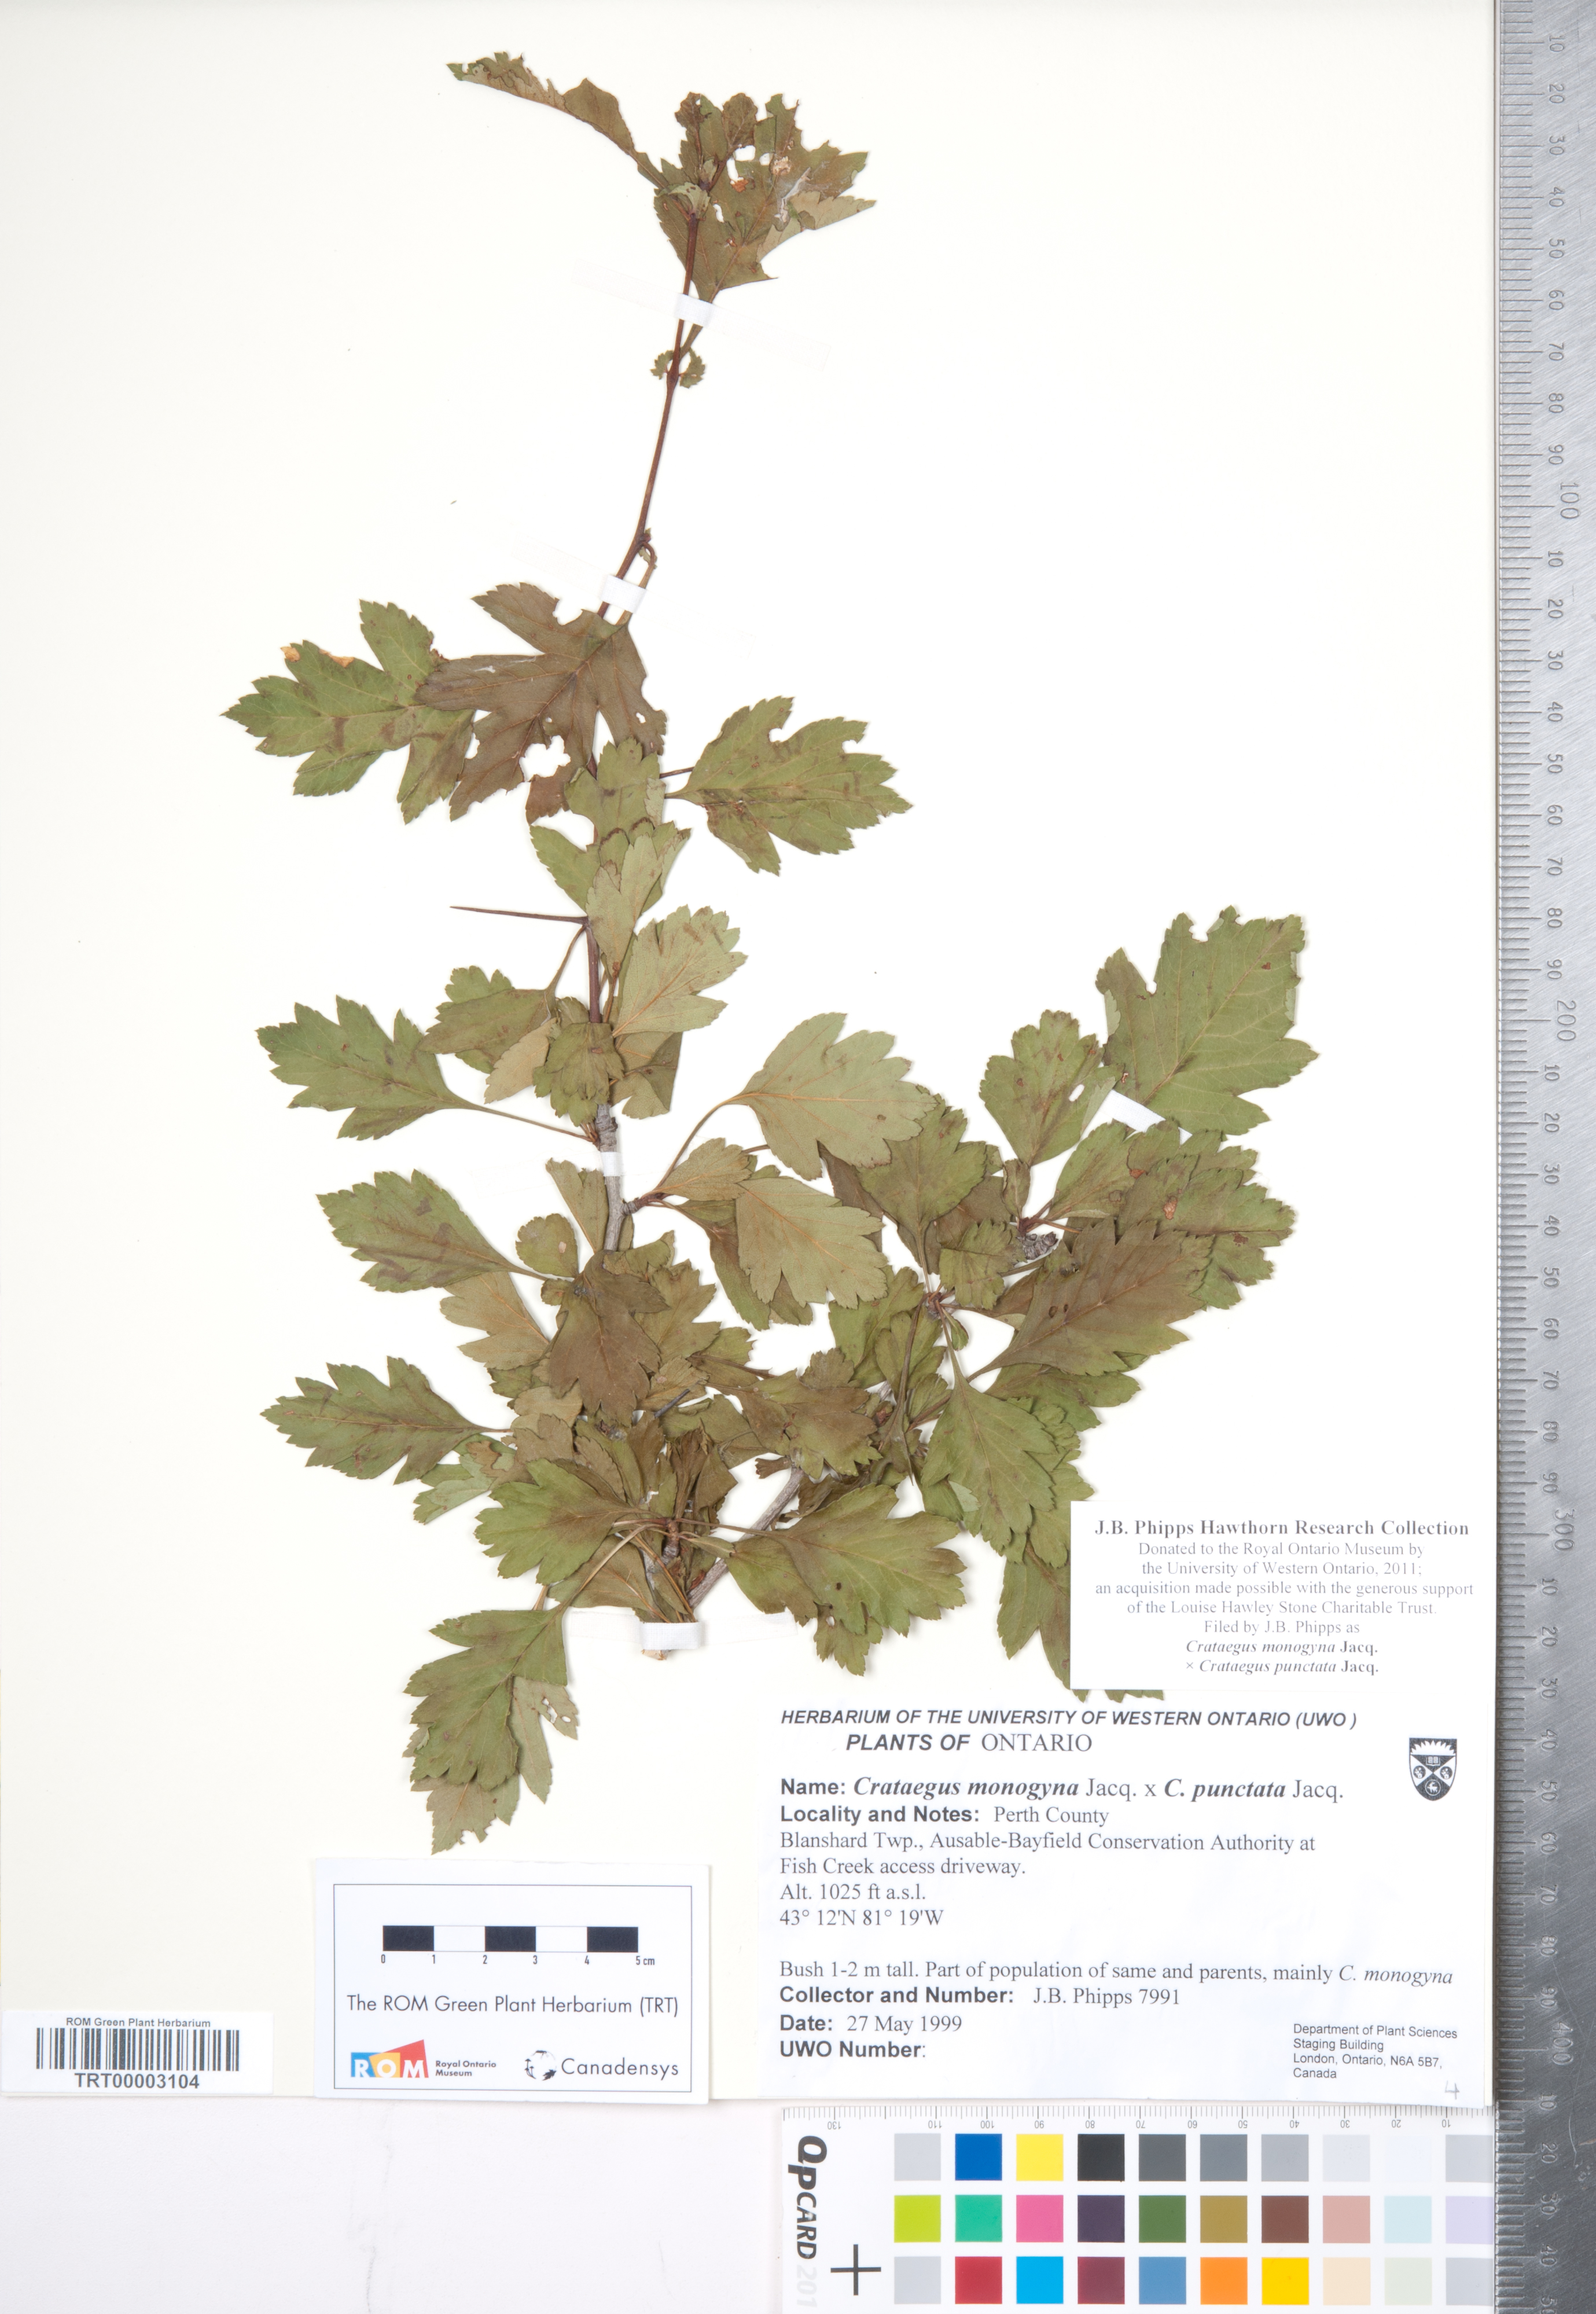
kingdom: Plantae
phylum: Tracheophyta
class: Magnoliopsida
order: Rosales
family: Rosaceae
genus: Crataegus
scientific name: Crataegus
